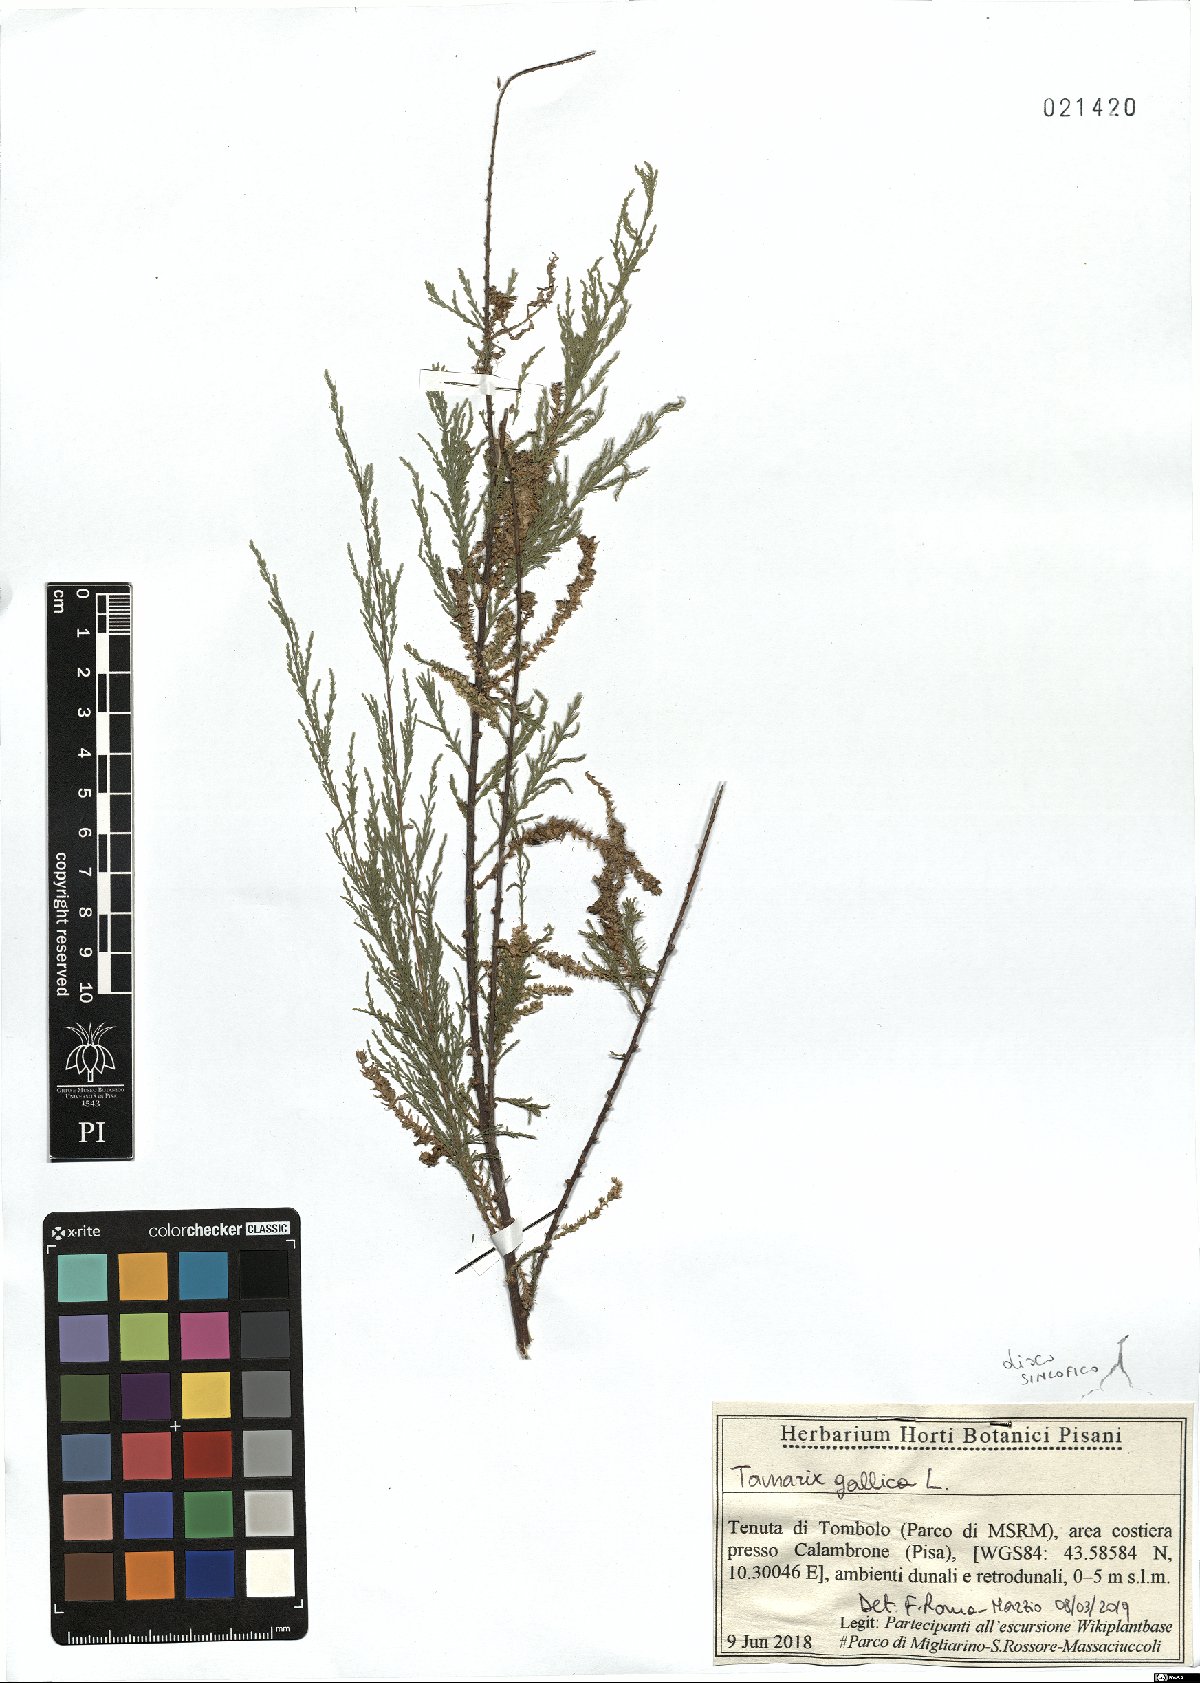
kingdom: Plantae
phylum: Tracheophyta
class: Magnoliopsida
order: Caryophyllales
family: Tamaricaceae
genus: Tamarix
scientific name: Tamarix gallica
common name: Tamarisk
